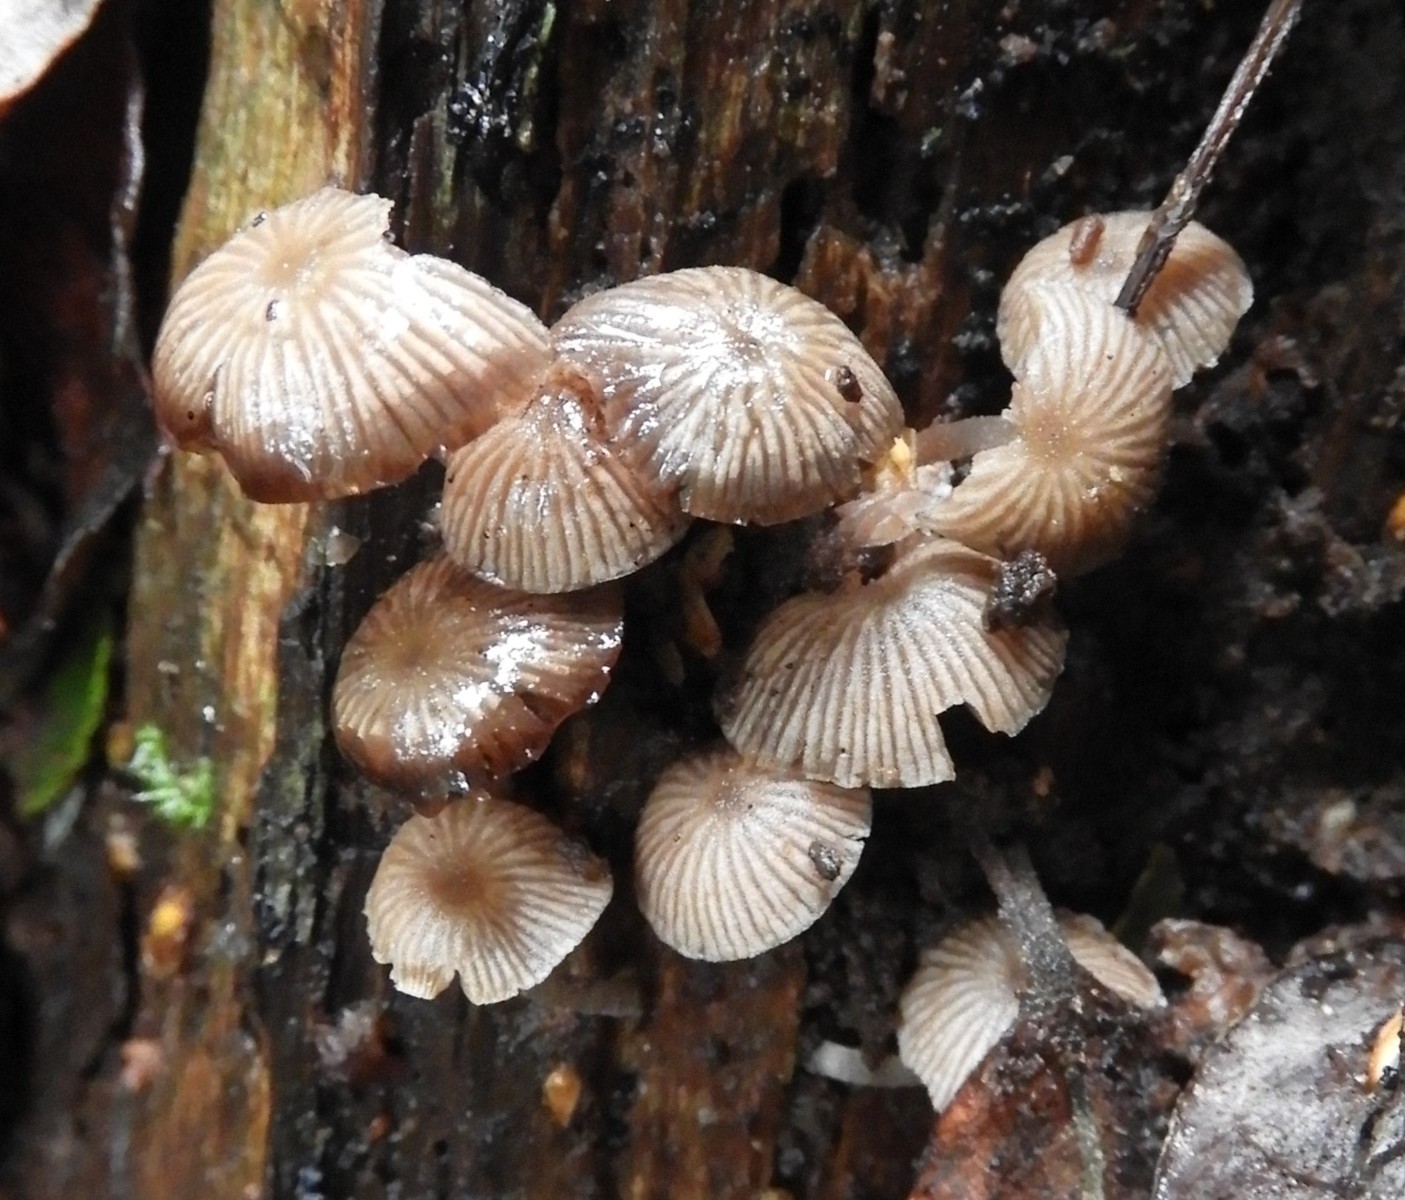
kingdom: Fungi
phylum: Basidiomycota
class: Agaricomycetes
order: Agaricales
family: Psathyrellaceae
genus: Psathyrella
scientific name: Psathyrella pygmaea
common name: dværg-mørkhat
